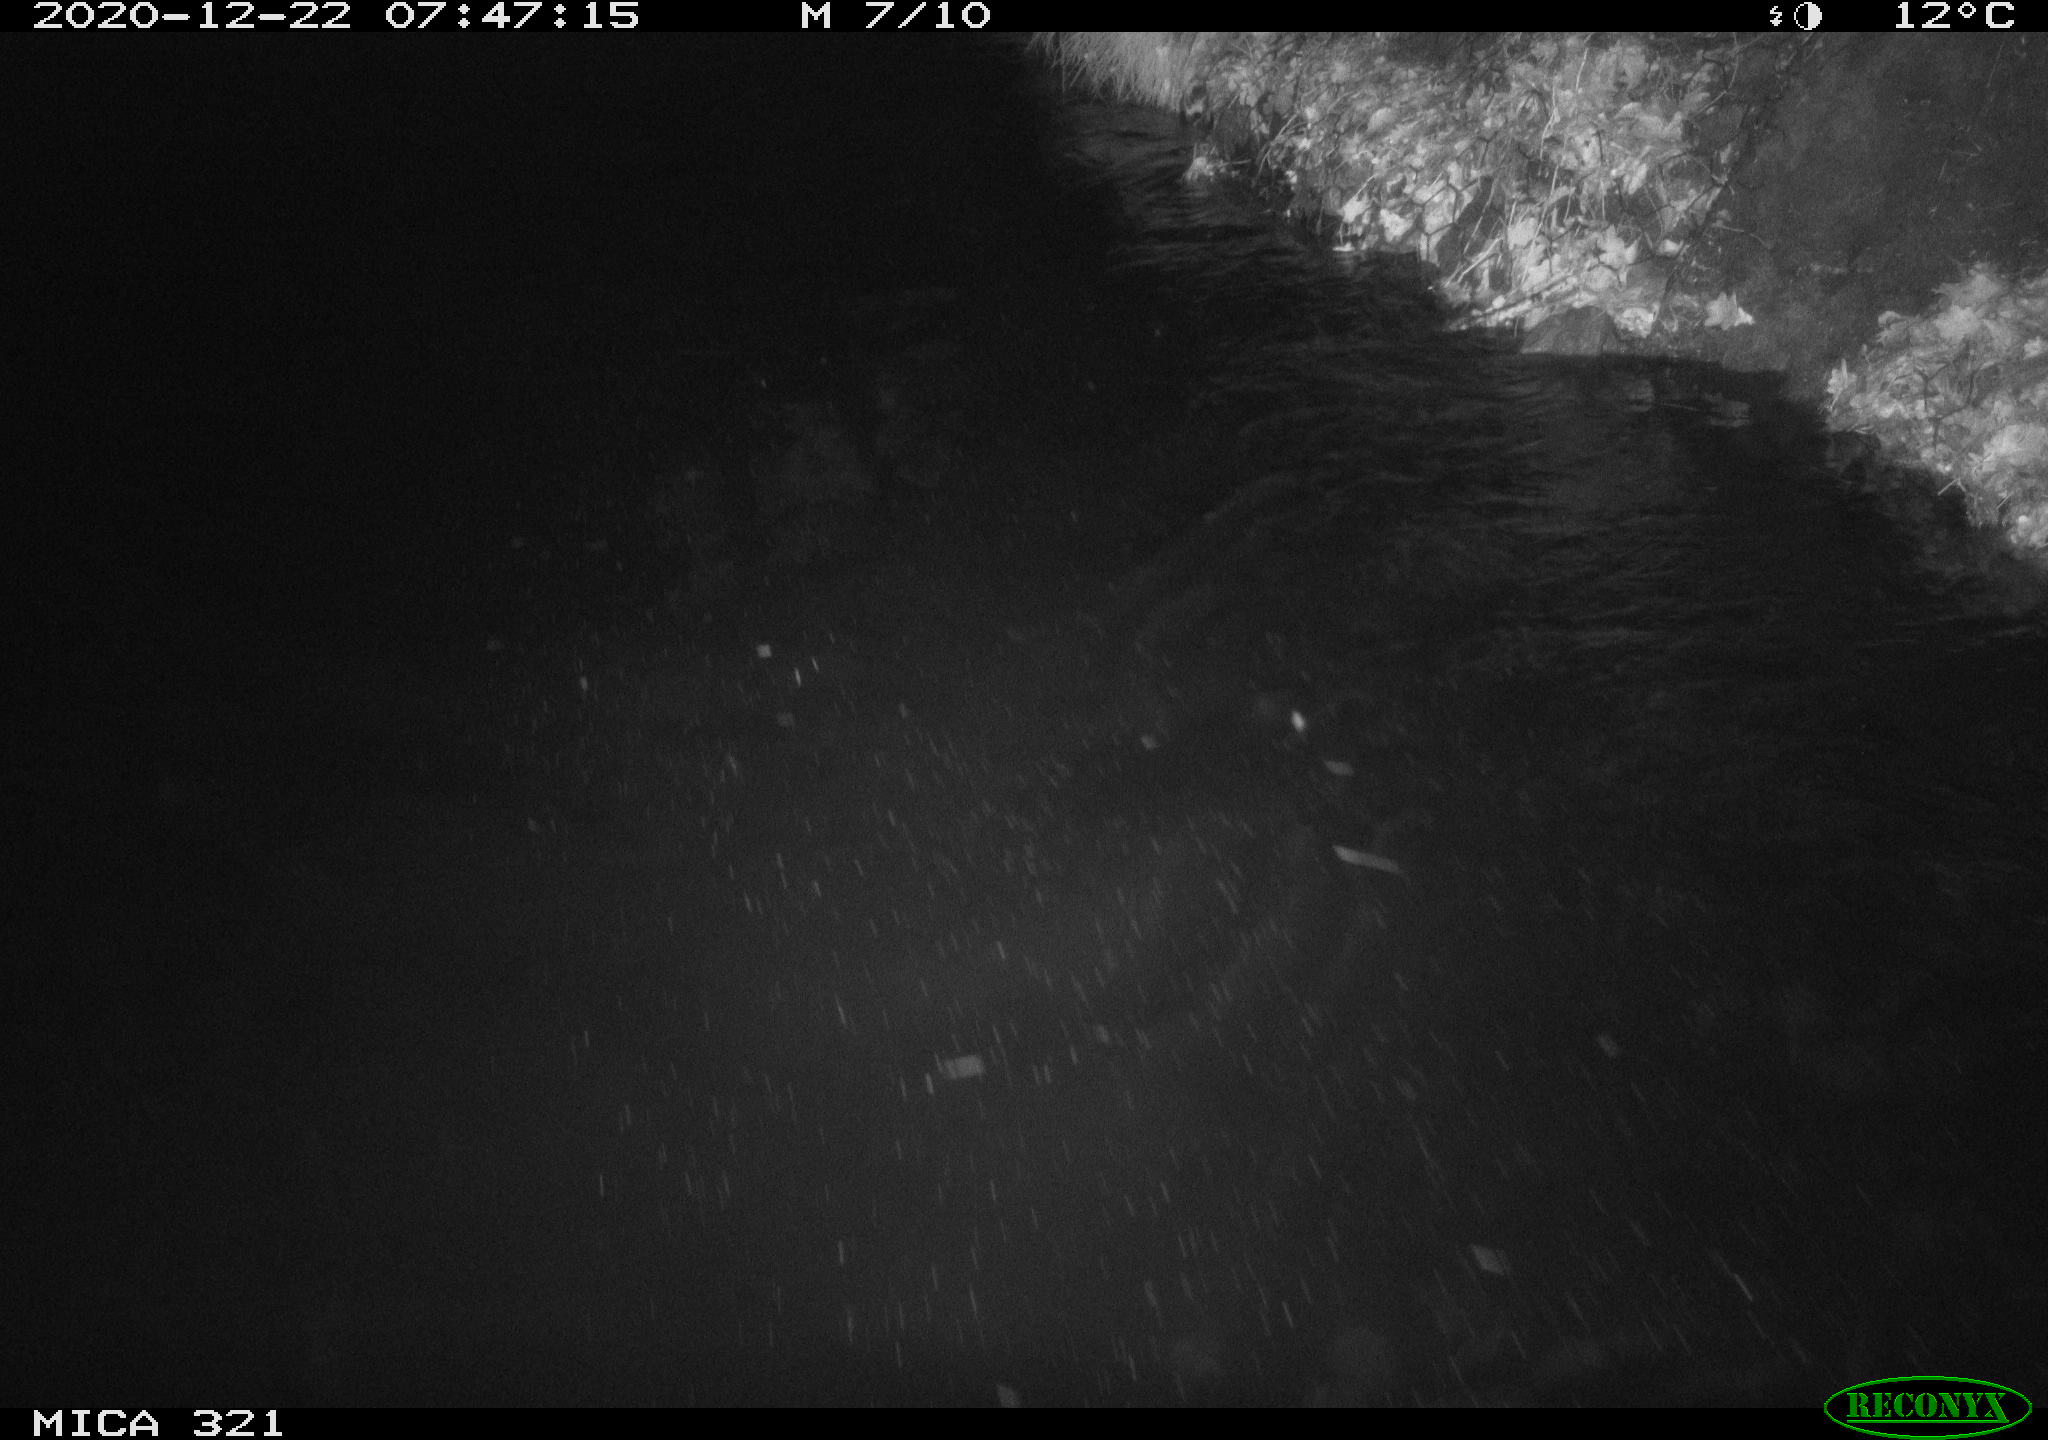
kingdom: Animalia
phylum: Chordata
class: Aves
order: Anseriformes
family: Anatidae
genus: Anas
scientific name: Anas platyrhynchos
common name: Mallard
